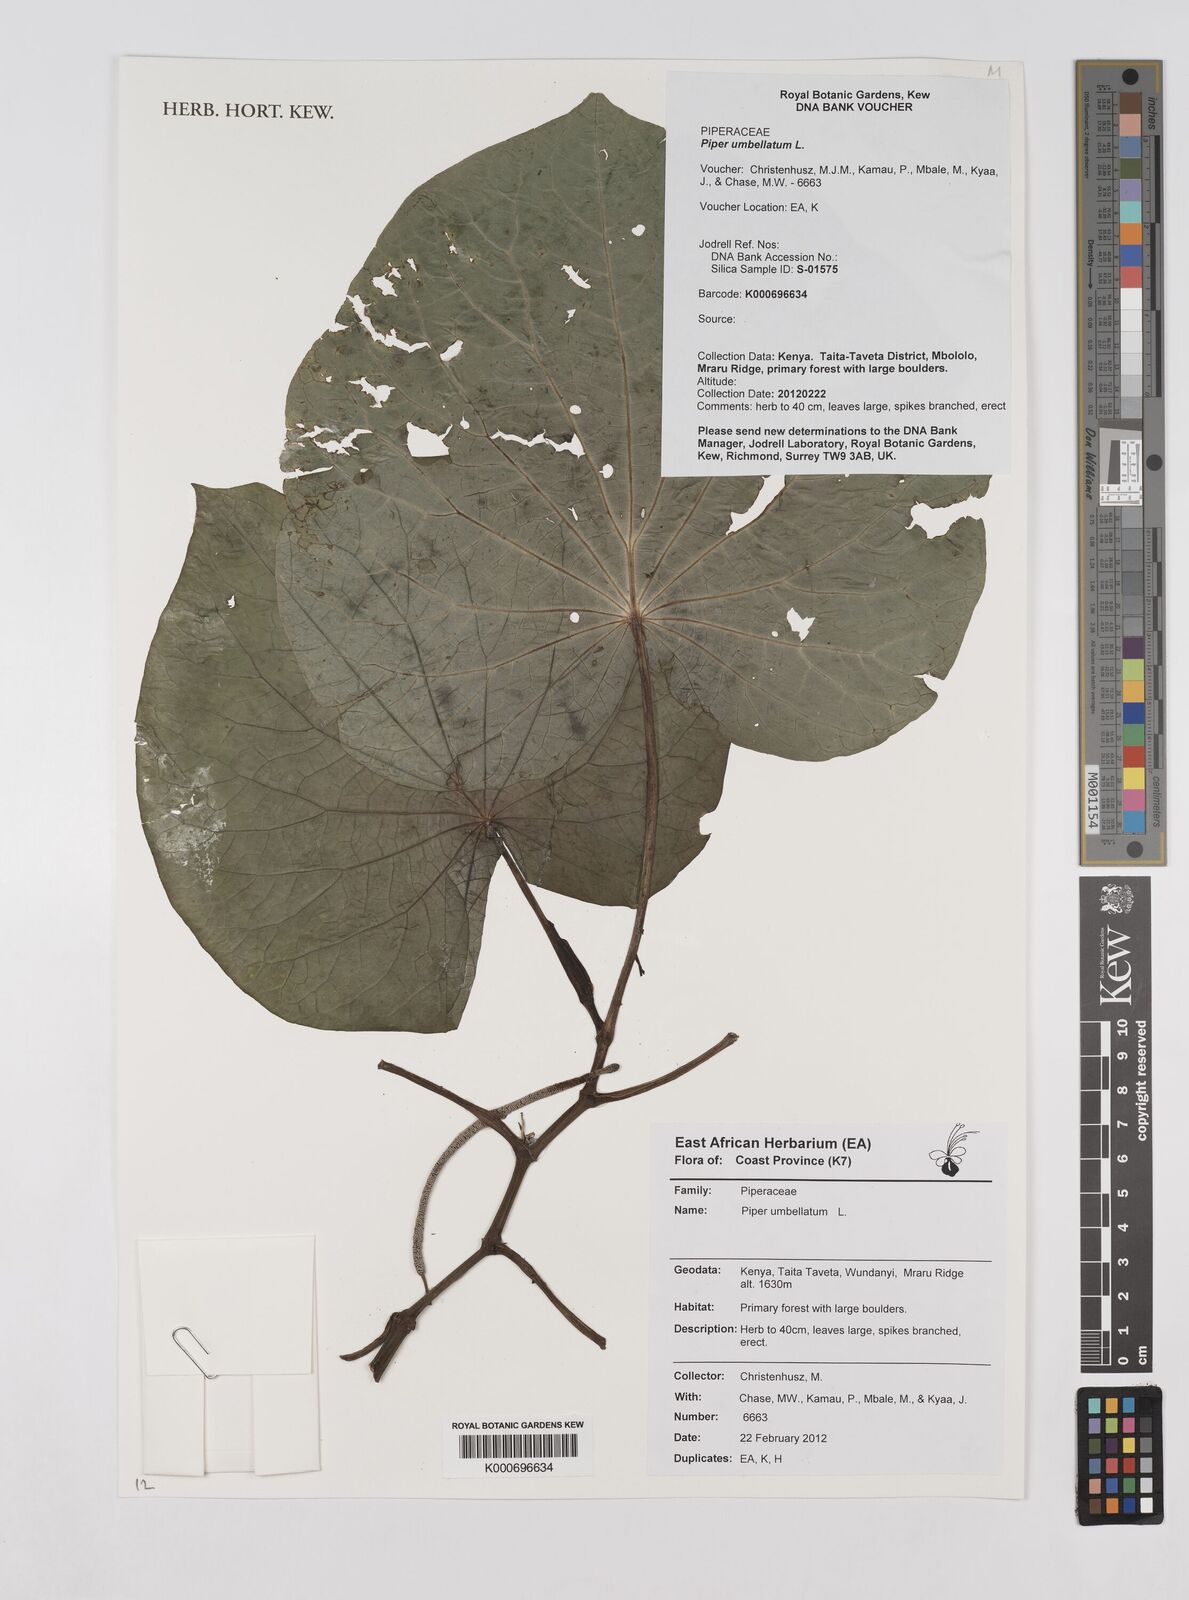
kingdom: Plantae
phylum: Tracheophyta
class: Magnoliopsida
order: Piperales
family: Piperaceae
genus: Piper
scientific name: Piper umbellatum
